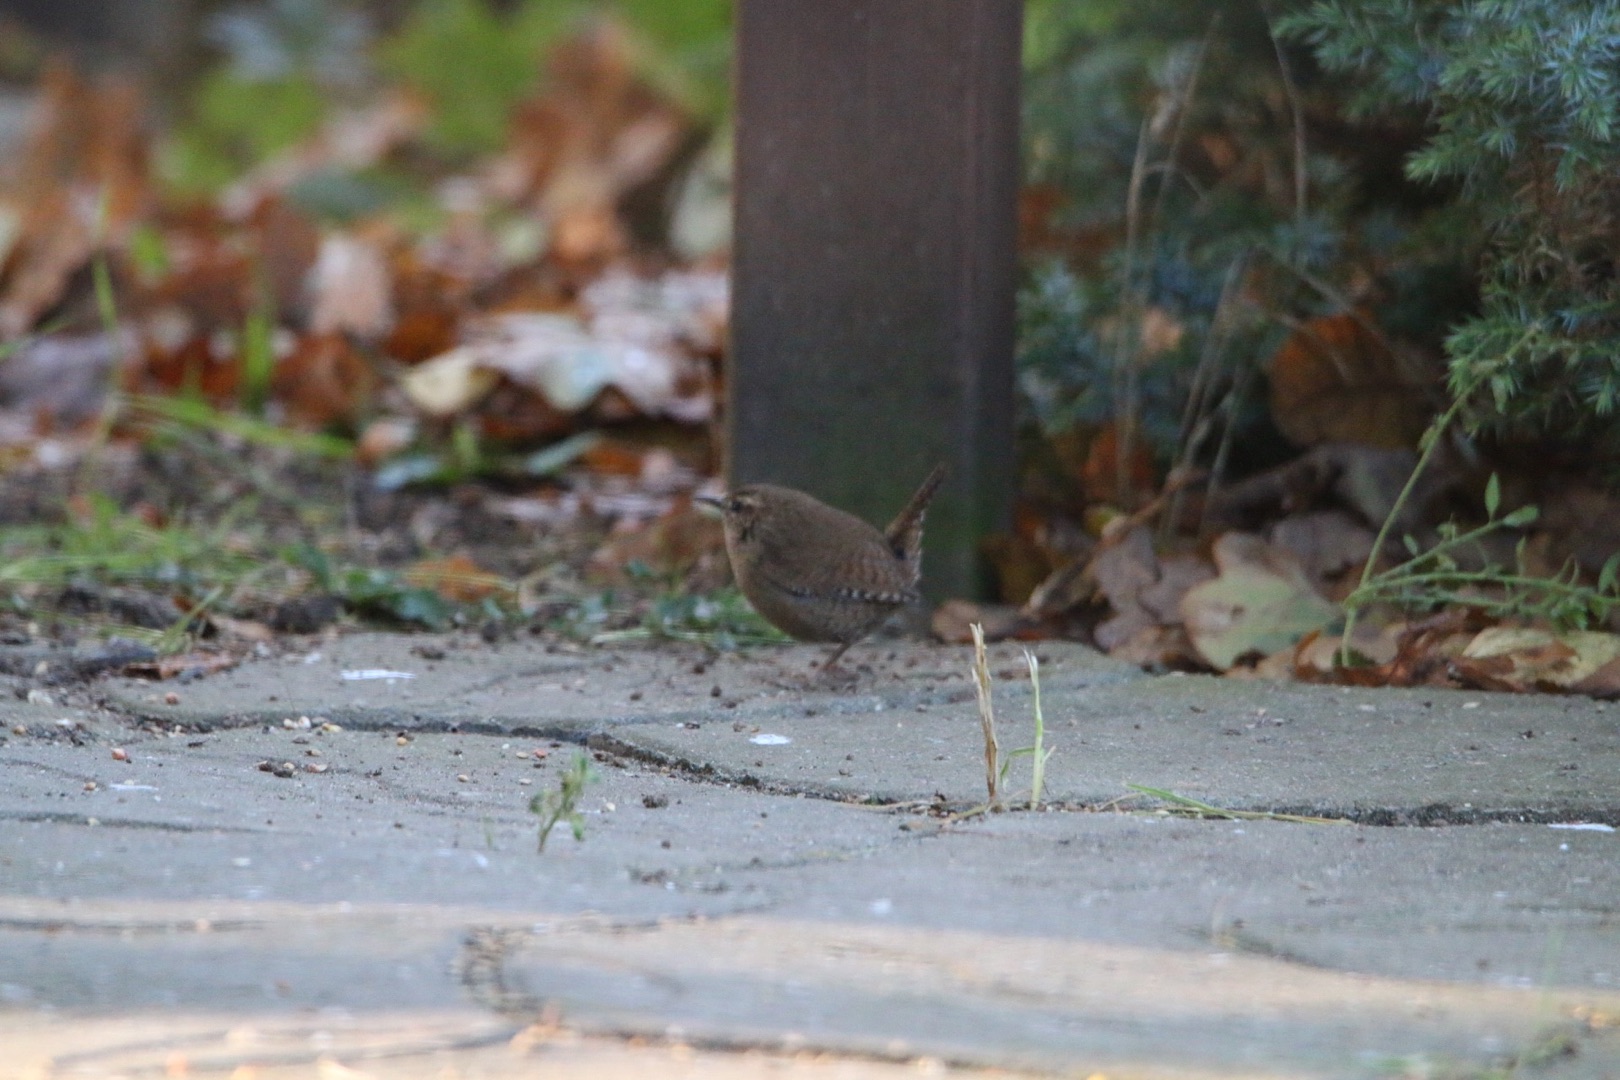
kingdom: Animalia
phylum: Chordata
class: Aves
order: Passeriformes
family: Troglodytidae
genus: Troglodytes
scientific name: Troglodytes troglodytes
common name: Gærdesmutte
